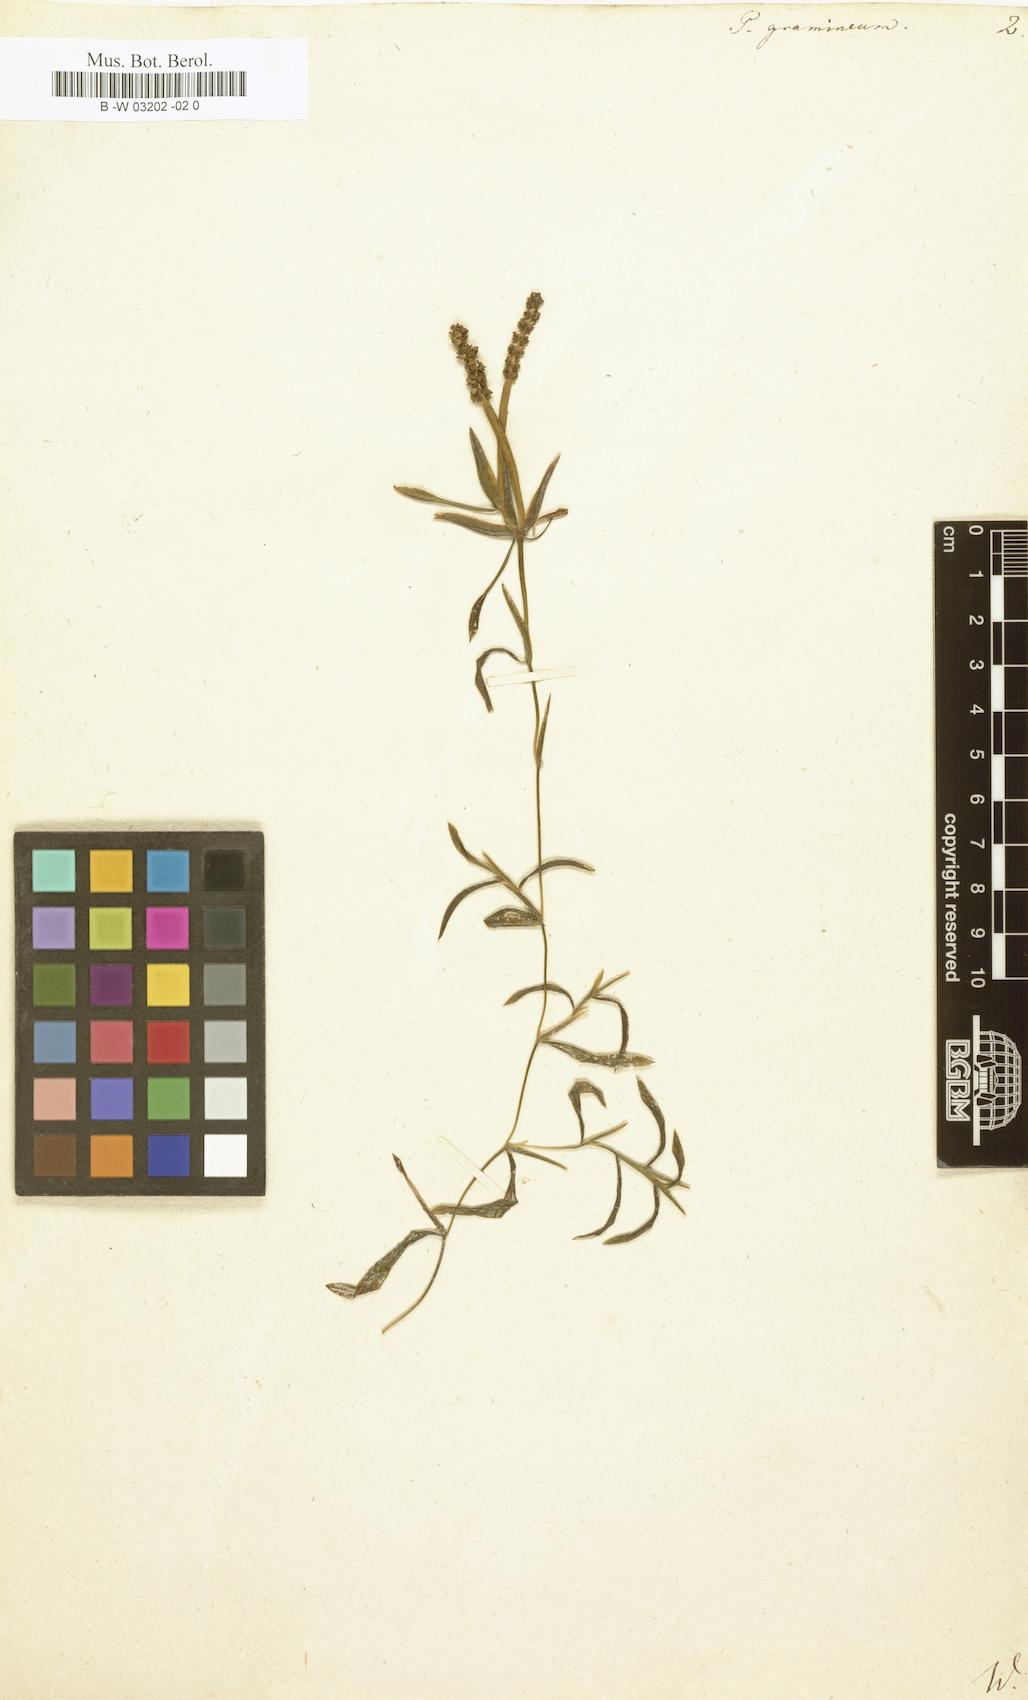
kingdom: Plantae
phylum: Tracheophyta
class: Liliopsida
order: Alismatales
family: Potamogetonaceae
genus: Potamogeton
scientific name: Potamogeton gramineus
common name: Various-leaved pondweed
